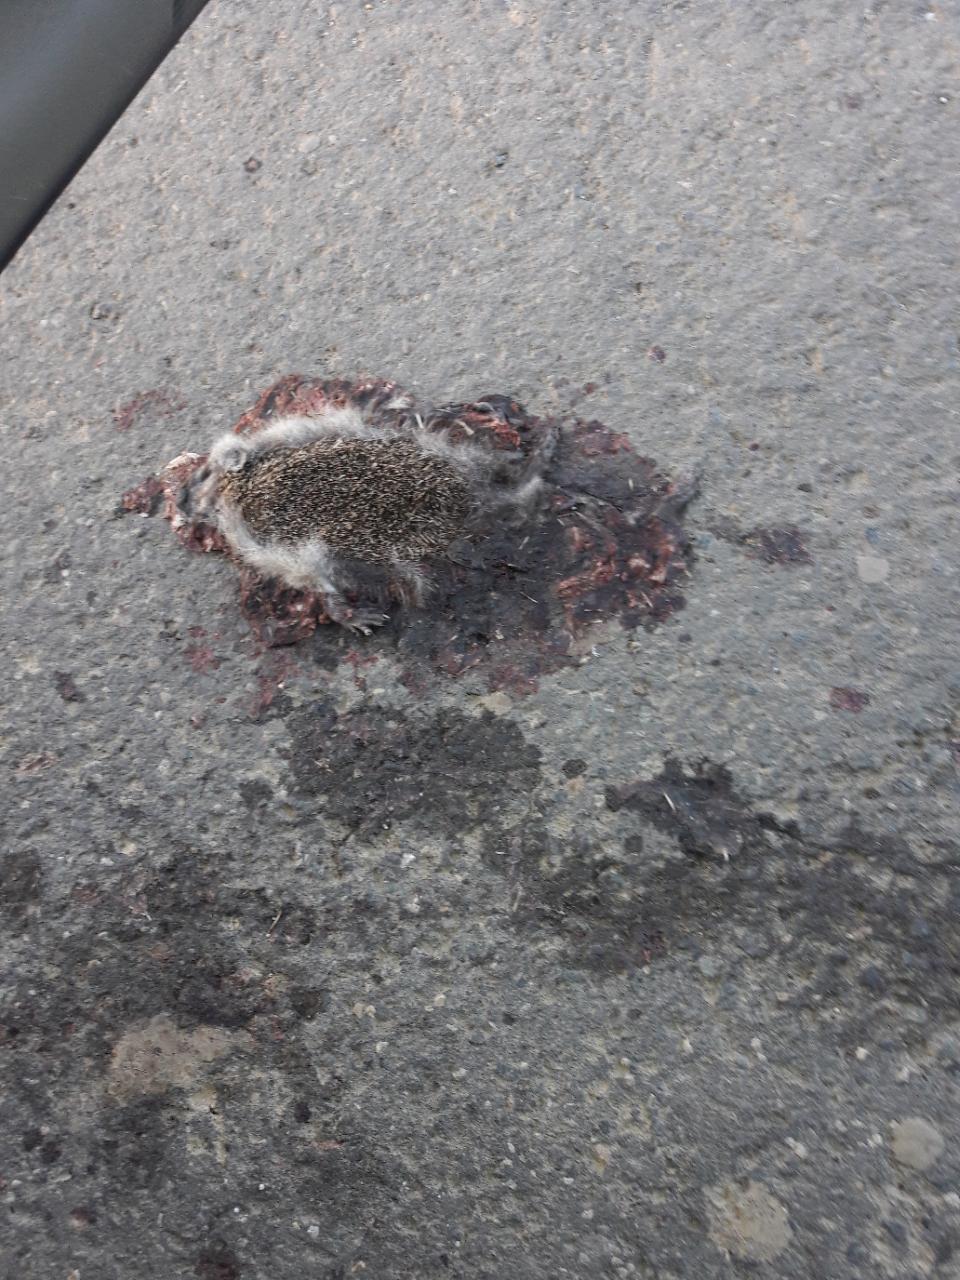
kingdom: Animalia
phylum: Chordata
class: Mammalia
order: Erinaceomorpha
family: Erinaceidae
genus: Erinaceus
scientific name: Erinaceus
